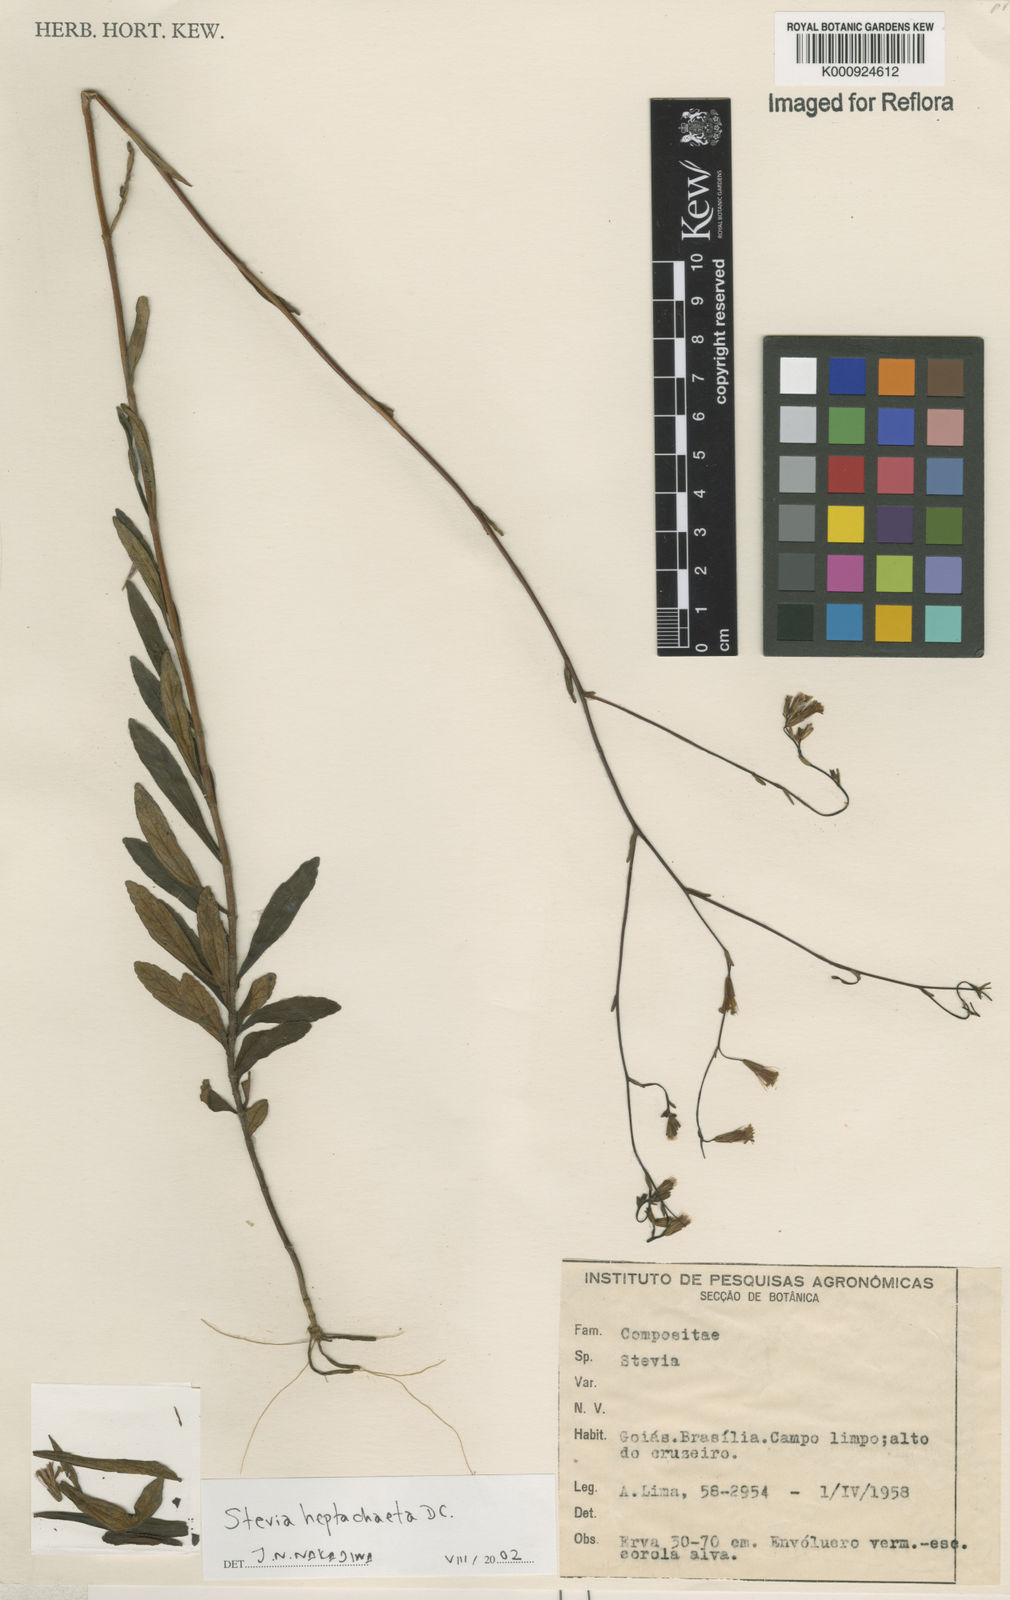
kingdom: Plantae
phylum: Tracheophyta
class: Magnoliopsida
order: Asterales
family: Asteraceae
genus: Stevia
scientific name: Stevia heptachaeta
